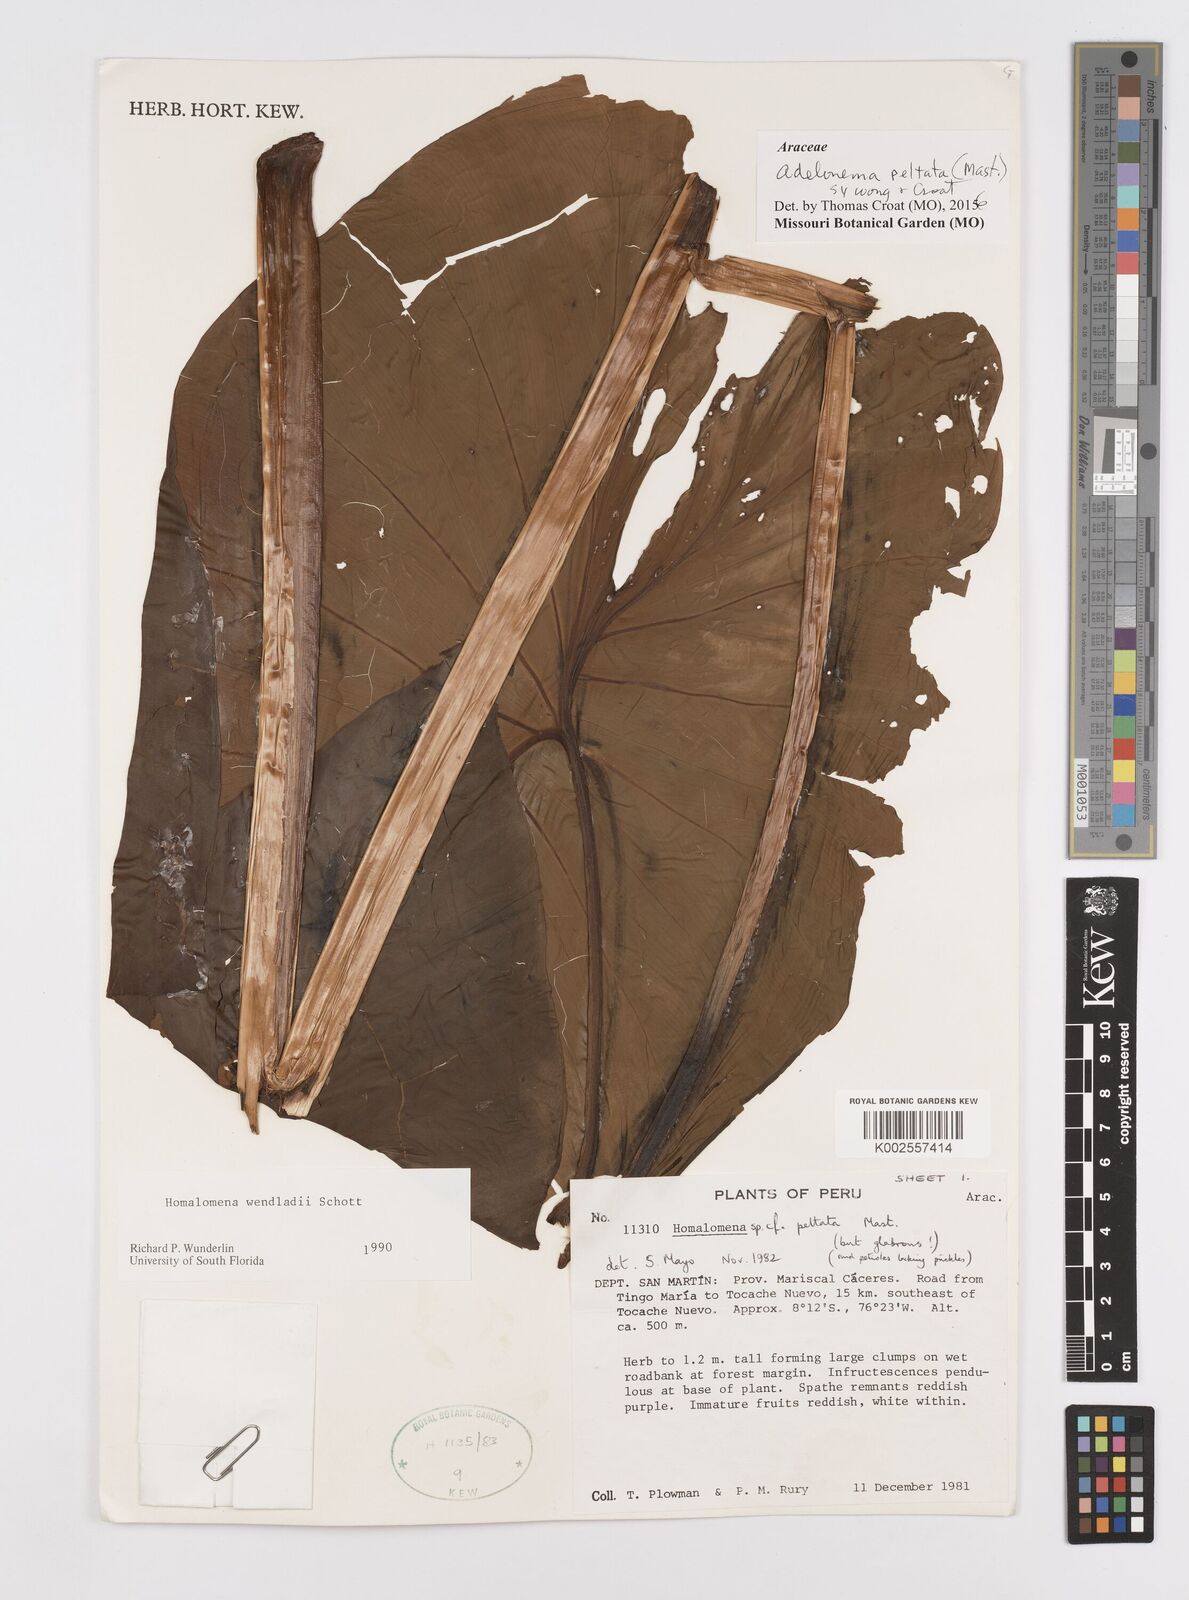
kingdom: Plantae
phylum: Tracheophyta
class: Liliopsida
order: Alismatales
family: Araceae
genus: Adelonema
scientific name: Adelonema peltatum
